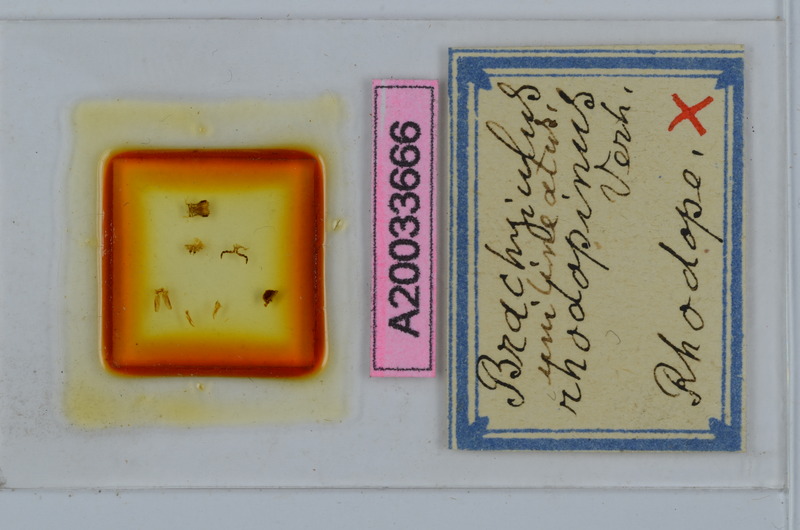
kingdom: Animalia
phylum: Arthropoda
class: Diplopoda
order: Julida
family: Julidae
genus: Megaphyllum
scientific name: Megaphyllum rhodopinum
